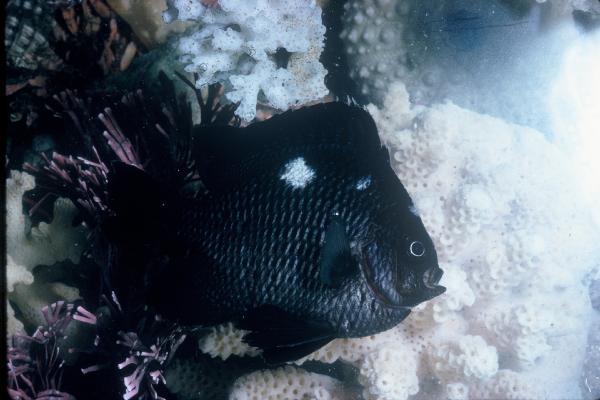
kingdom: Animalia
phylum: Chordata
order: Perciformes
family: Pomacentridae
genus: Dascyllus
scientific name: Dascyllus trimaculatus
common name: Threespot dascyllus
